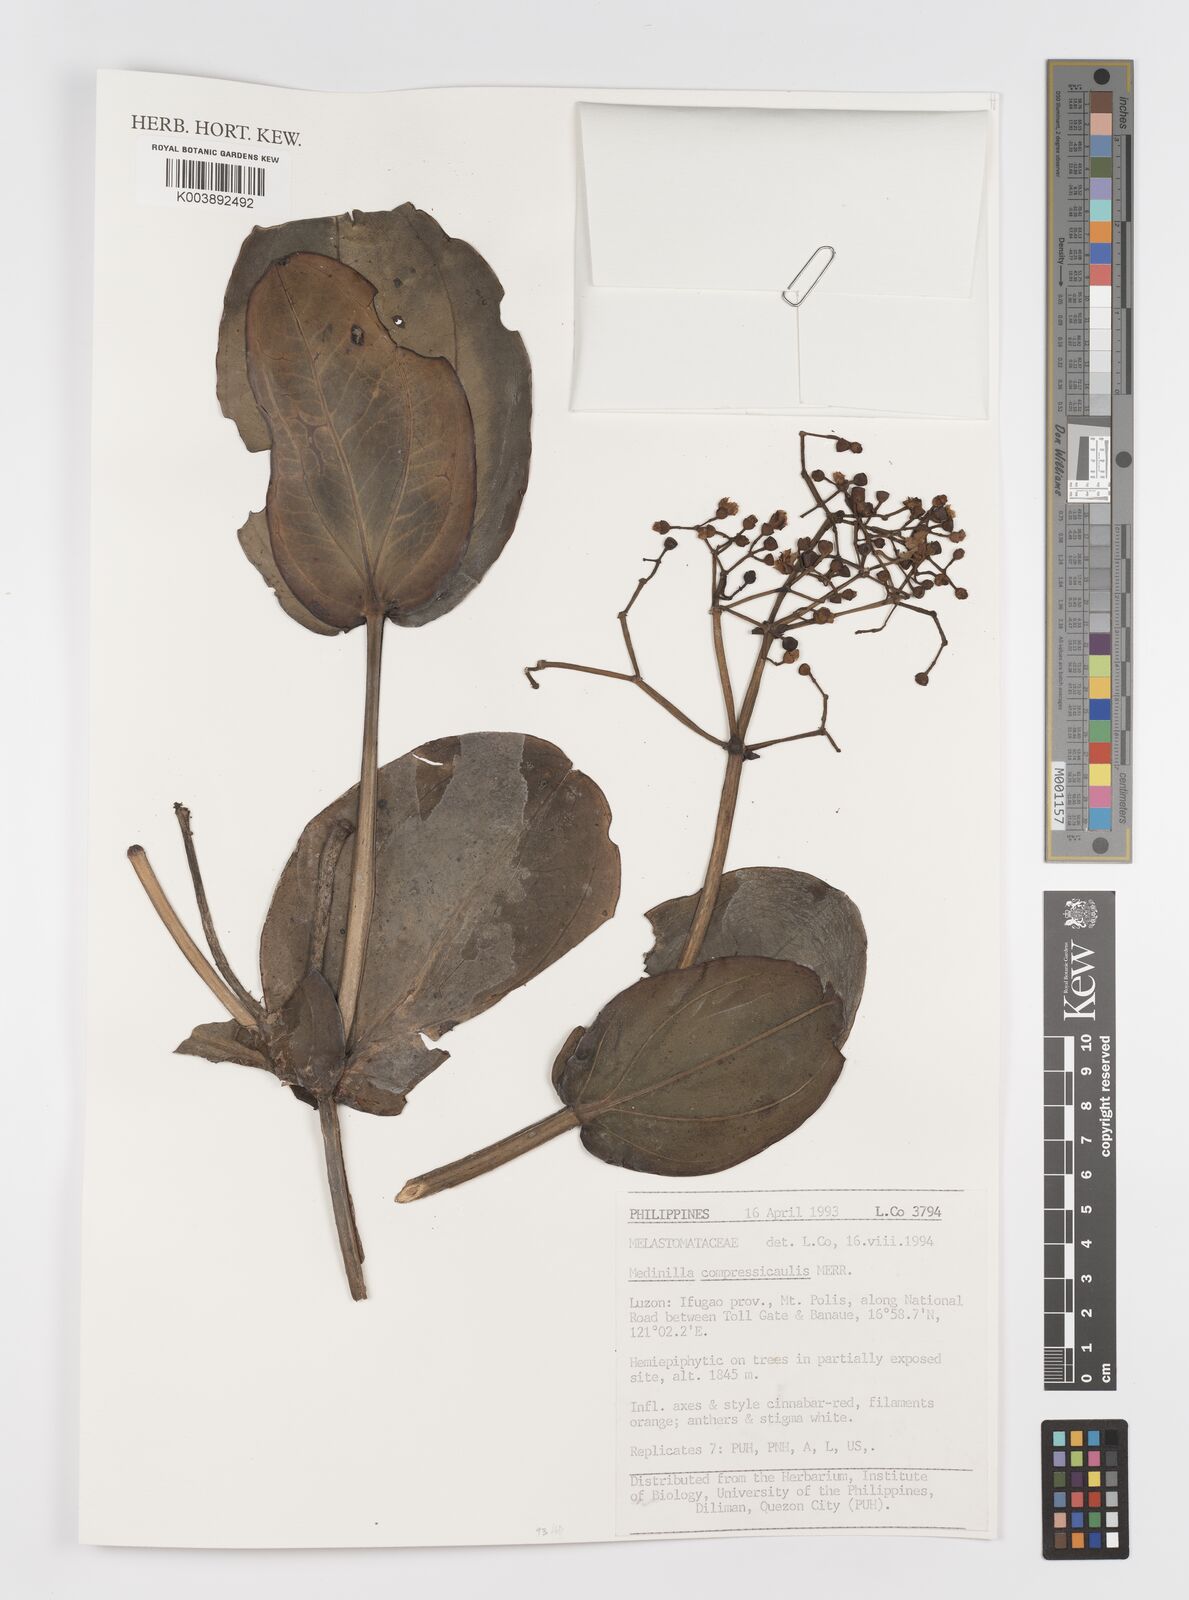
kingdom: Plantae
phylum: Tracheophyta
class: Magnoliopsida
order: Myrtales
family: Melastomataceae
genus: Medinilla
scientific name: Medinilla compressicaulis
